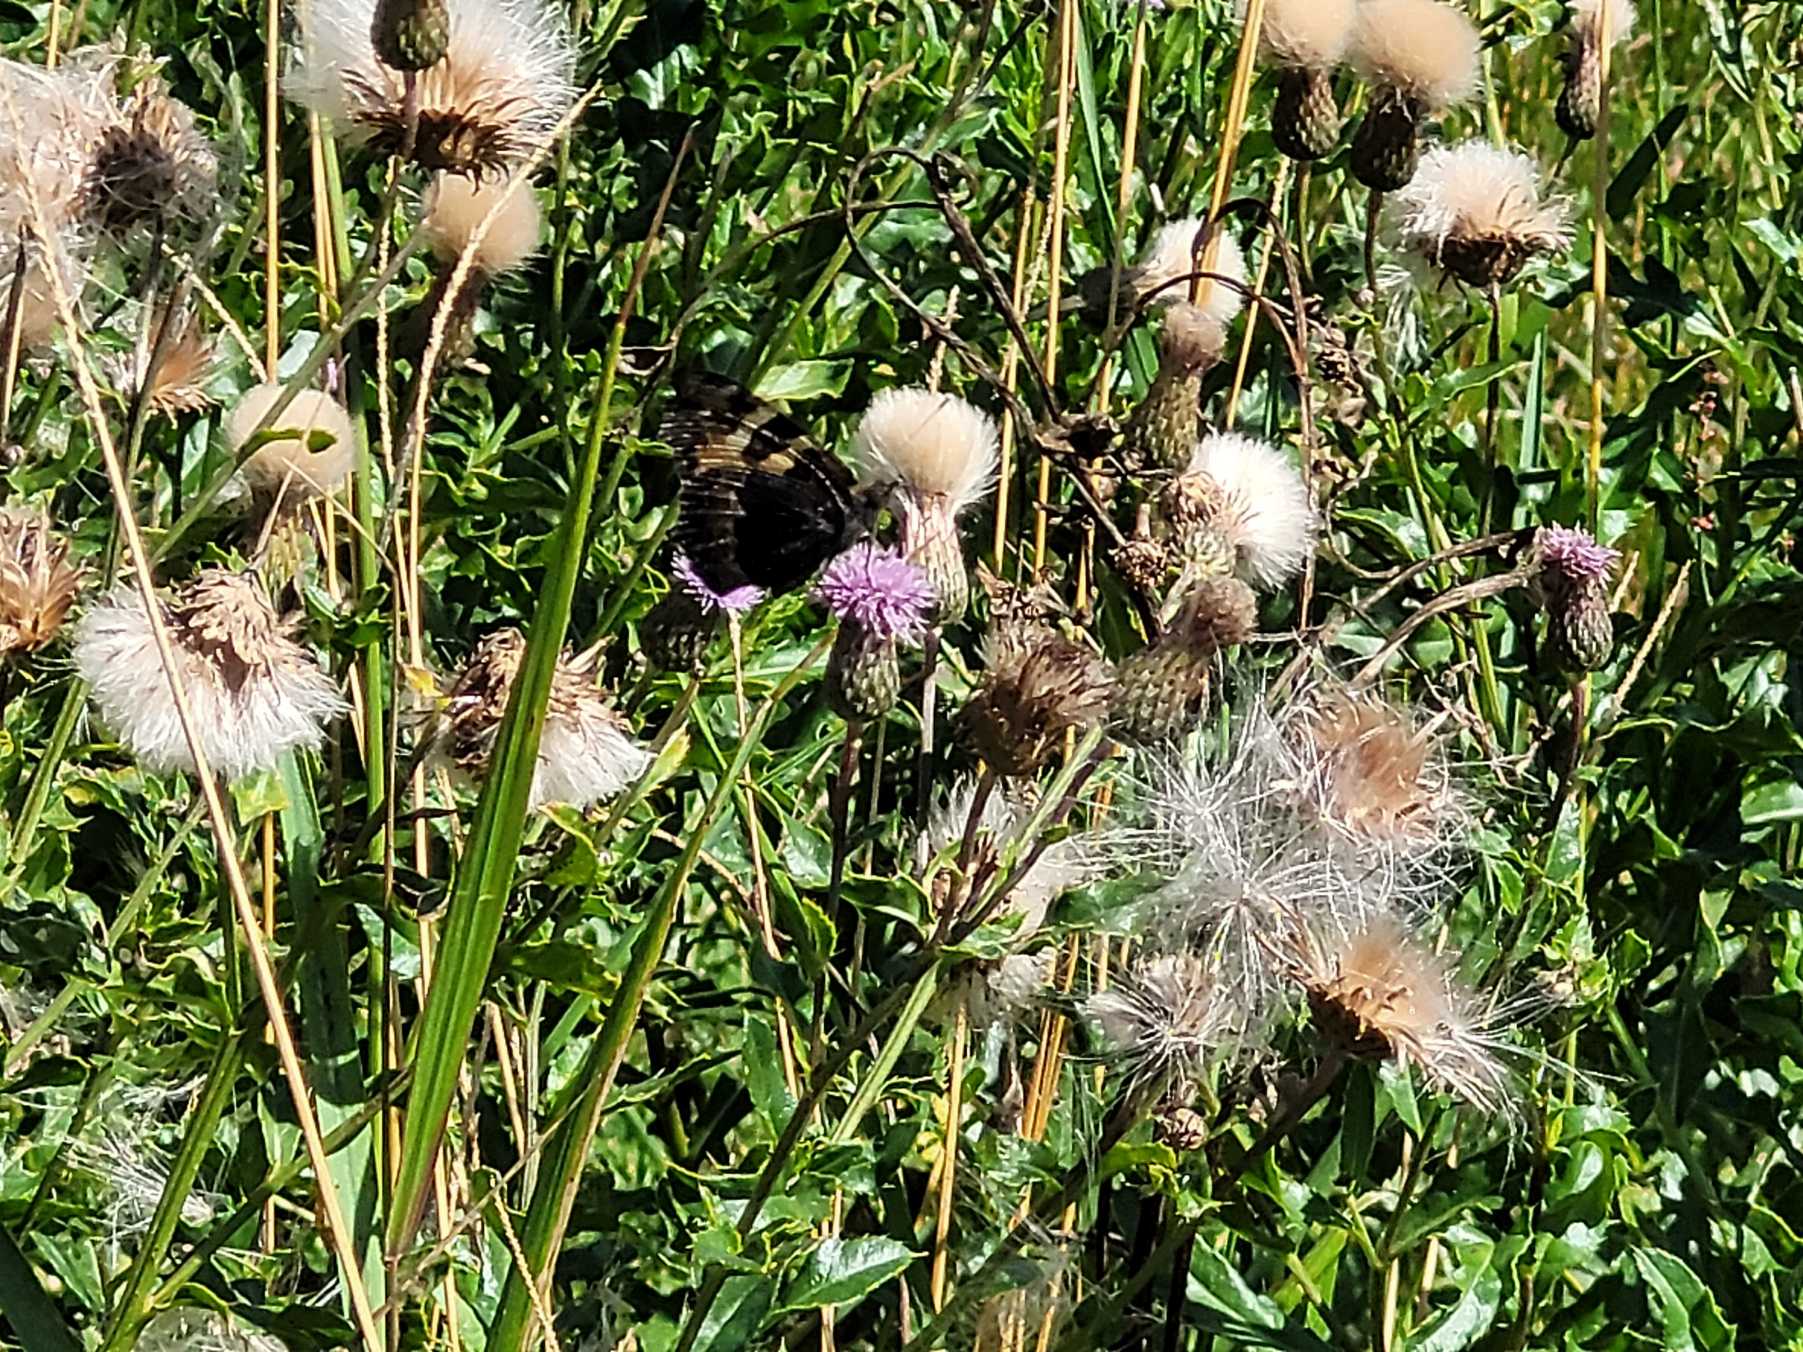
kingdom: Animalia
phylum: Arthropoda
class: Insecta
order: Lepidoptera
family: Nymphalidae
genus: Aglais
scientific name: Aglais urticae
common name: Nældens takvinge
